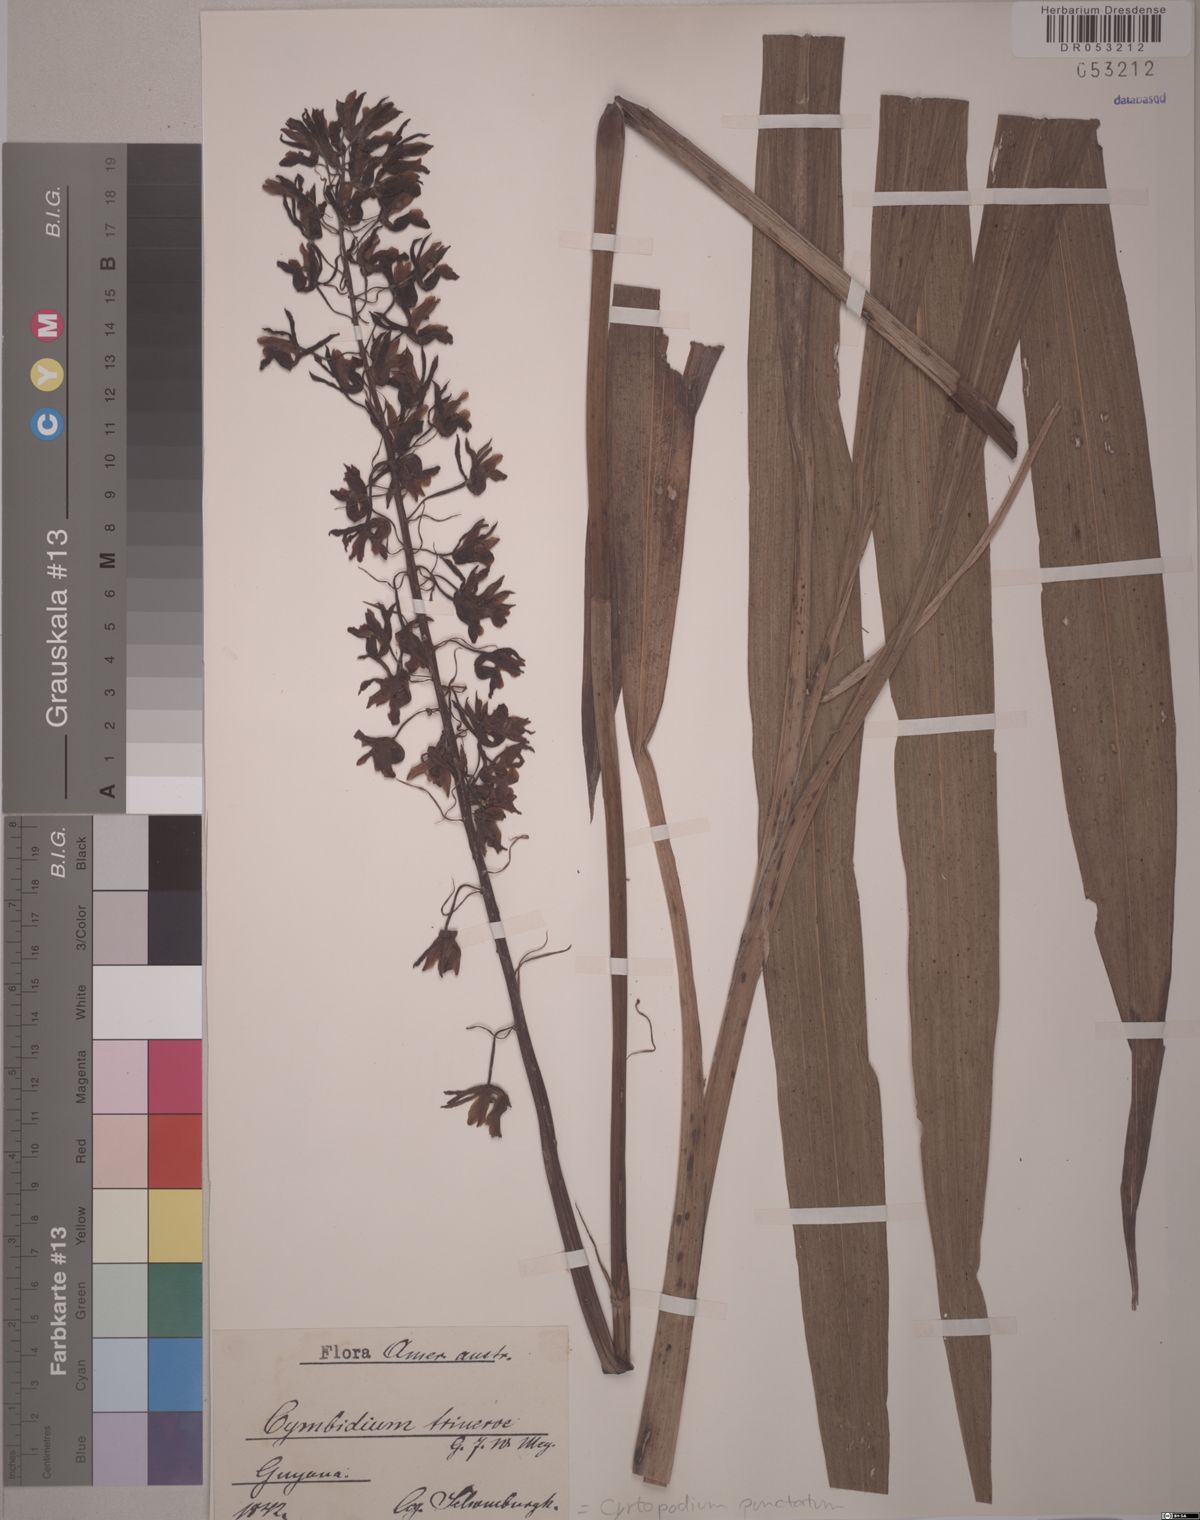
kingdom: Plantae
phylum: Tracheophyta
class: Liliopsida
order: Asparagales
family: Orchidaceae
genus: Cyrtopodium
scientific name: Cyrtopodium punctatum
